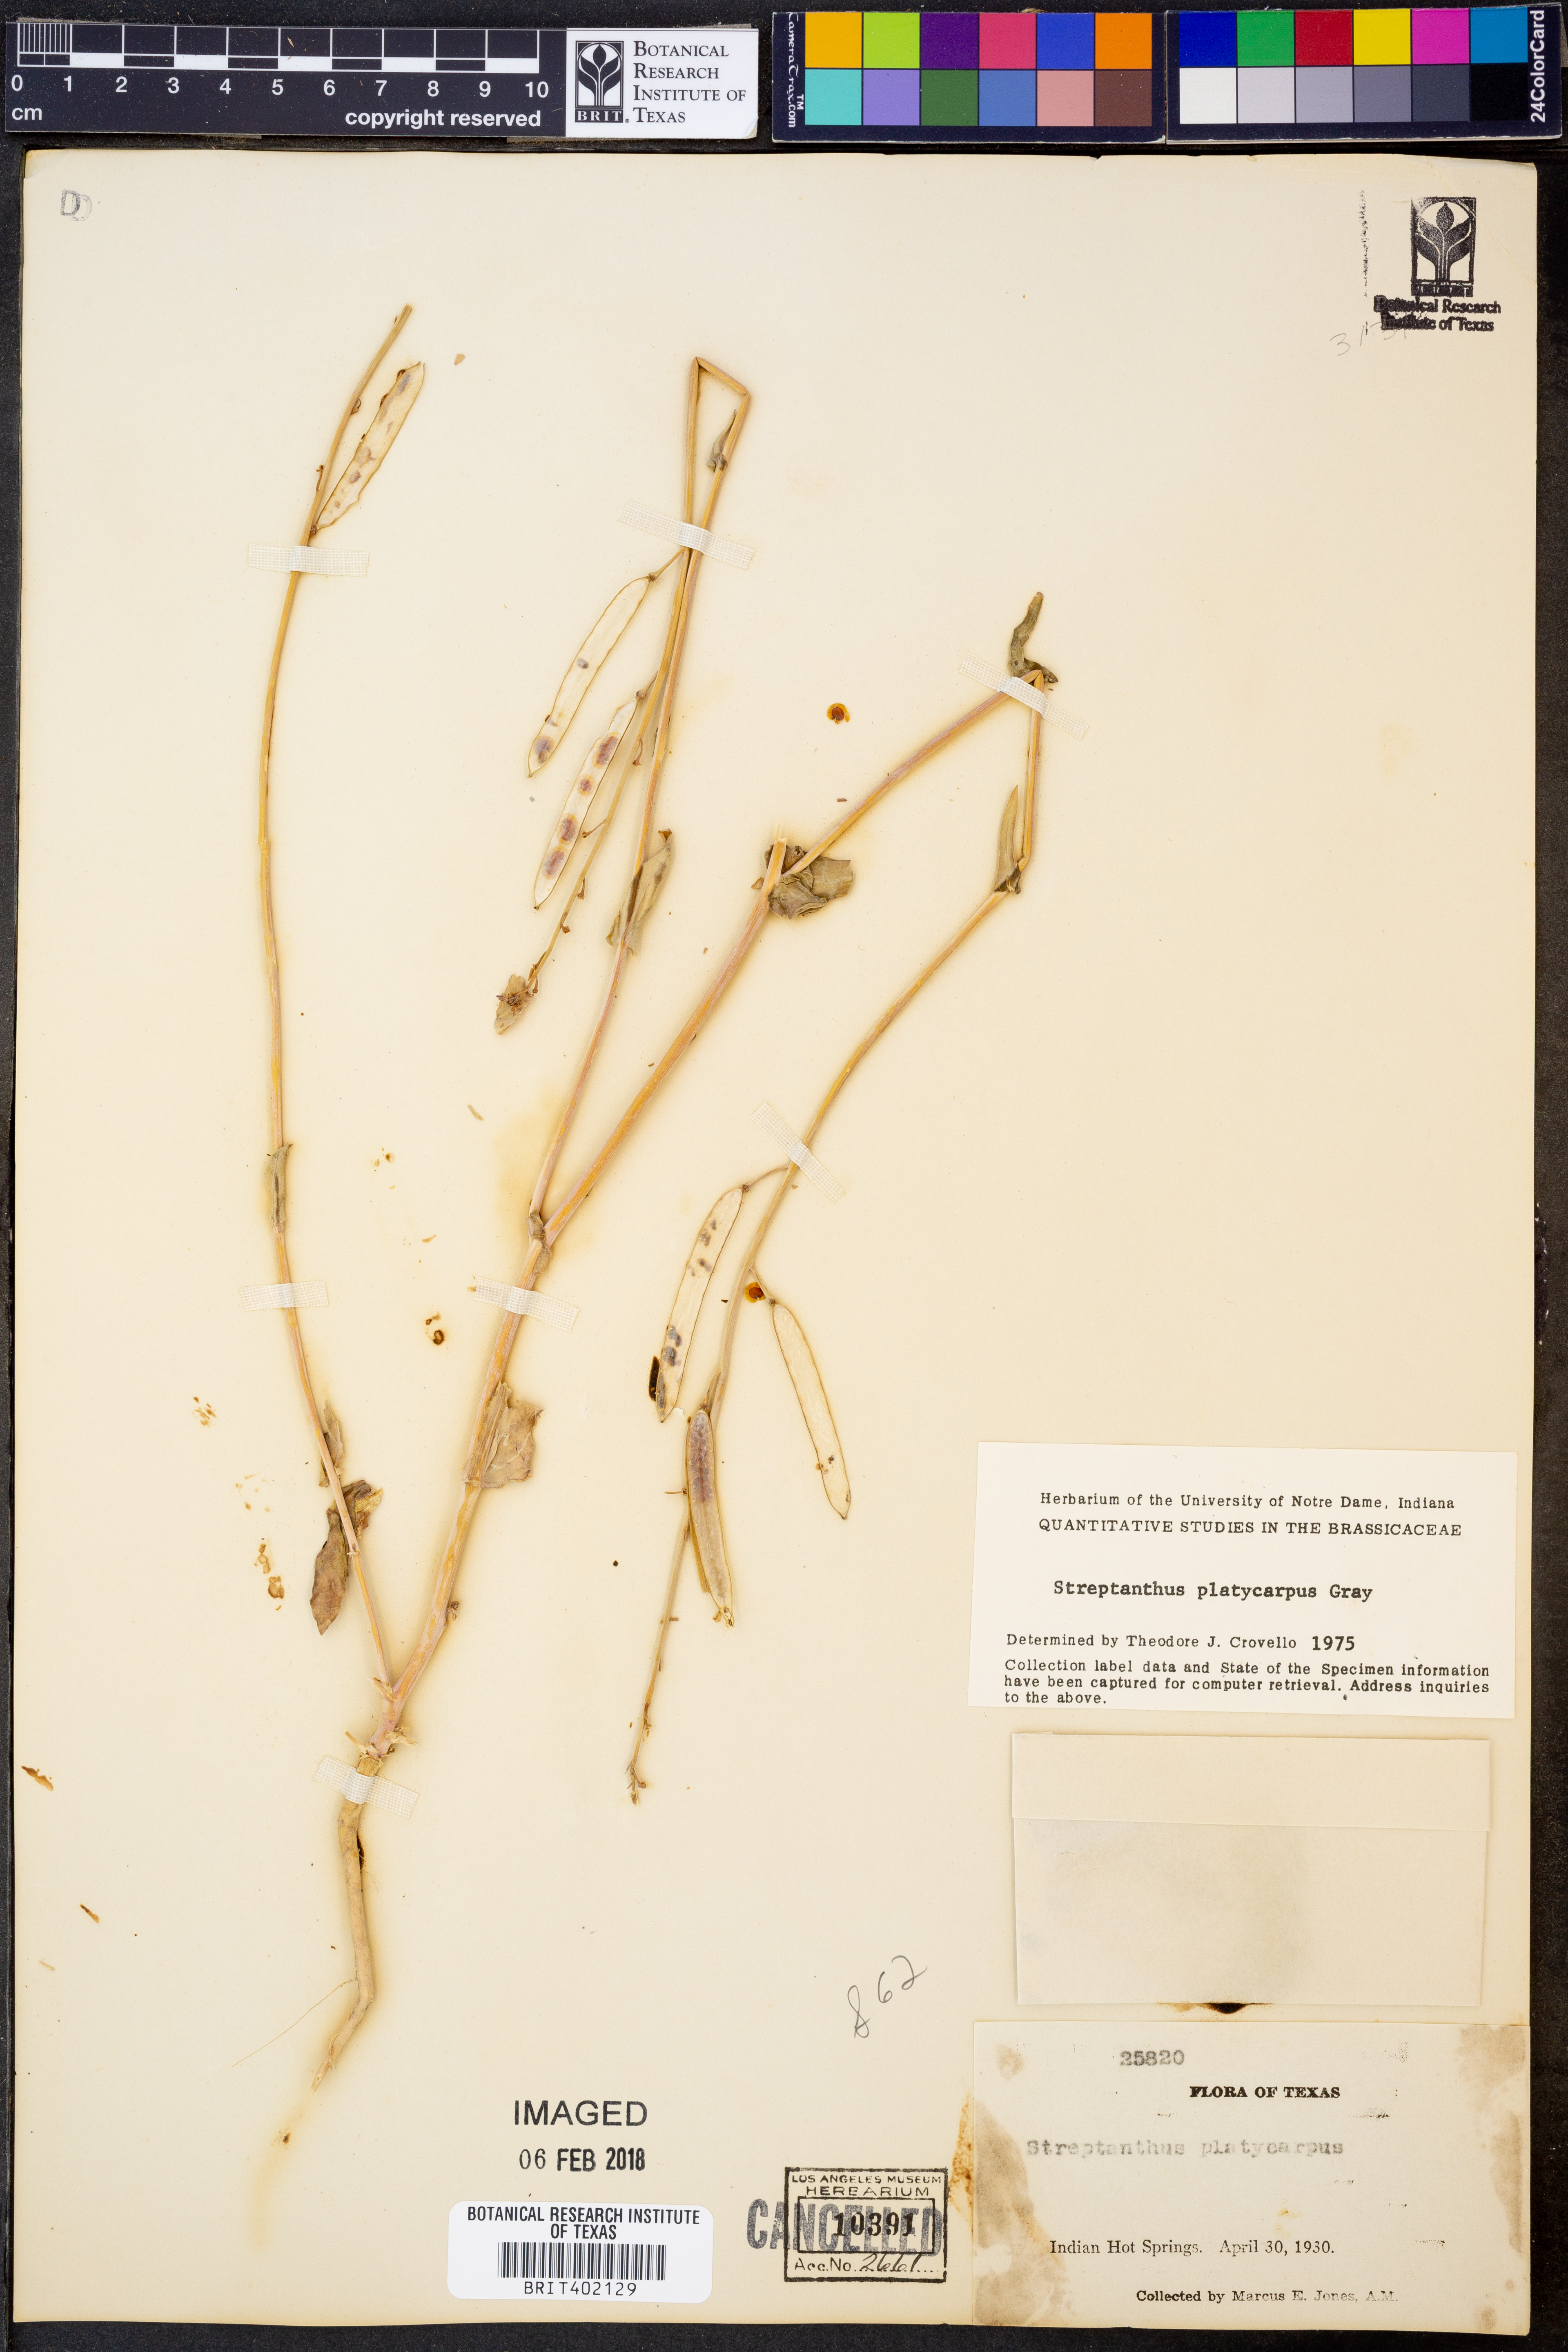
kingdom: Plantae
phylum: Tracheophyta
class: Magnoliopsida
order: Brassicales
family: Brassicaceae
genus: Streptanthus
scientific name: Streptanthus platycarpus
